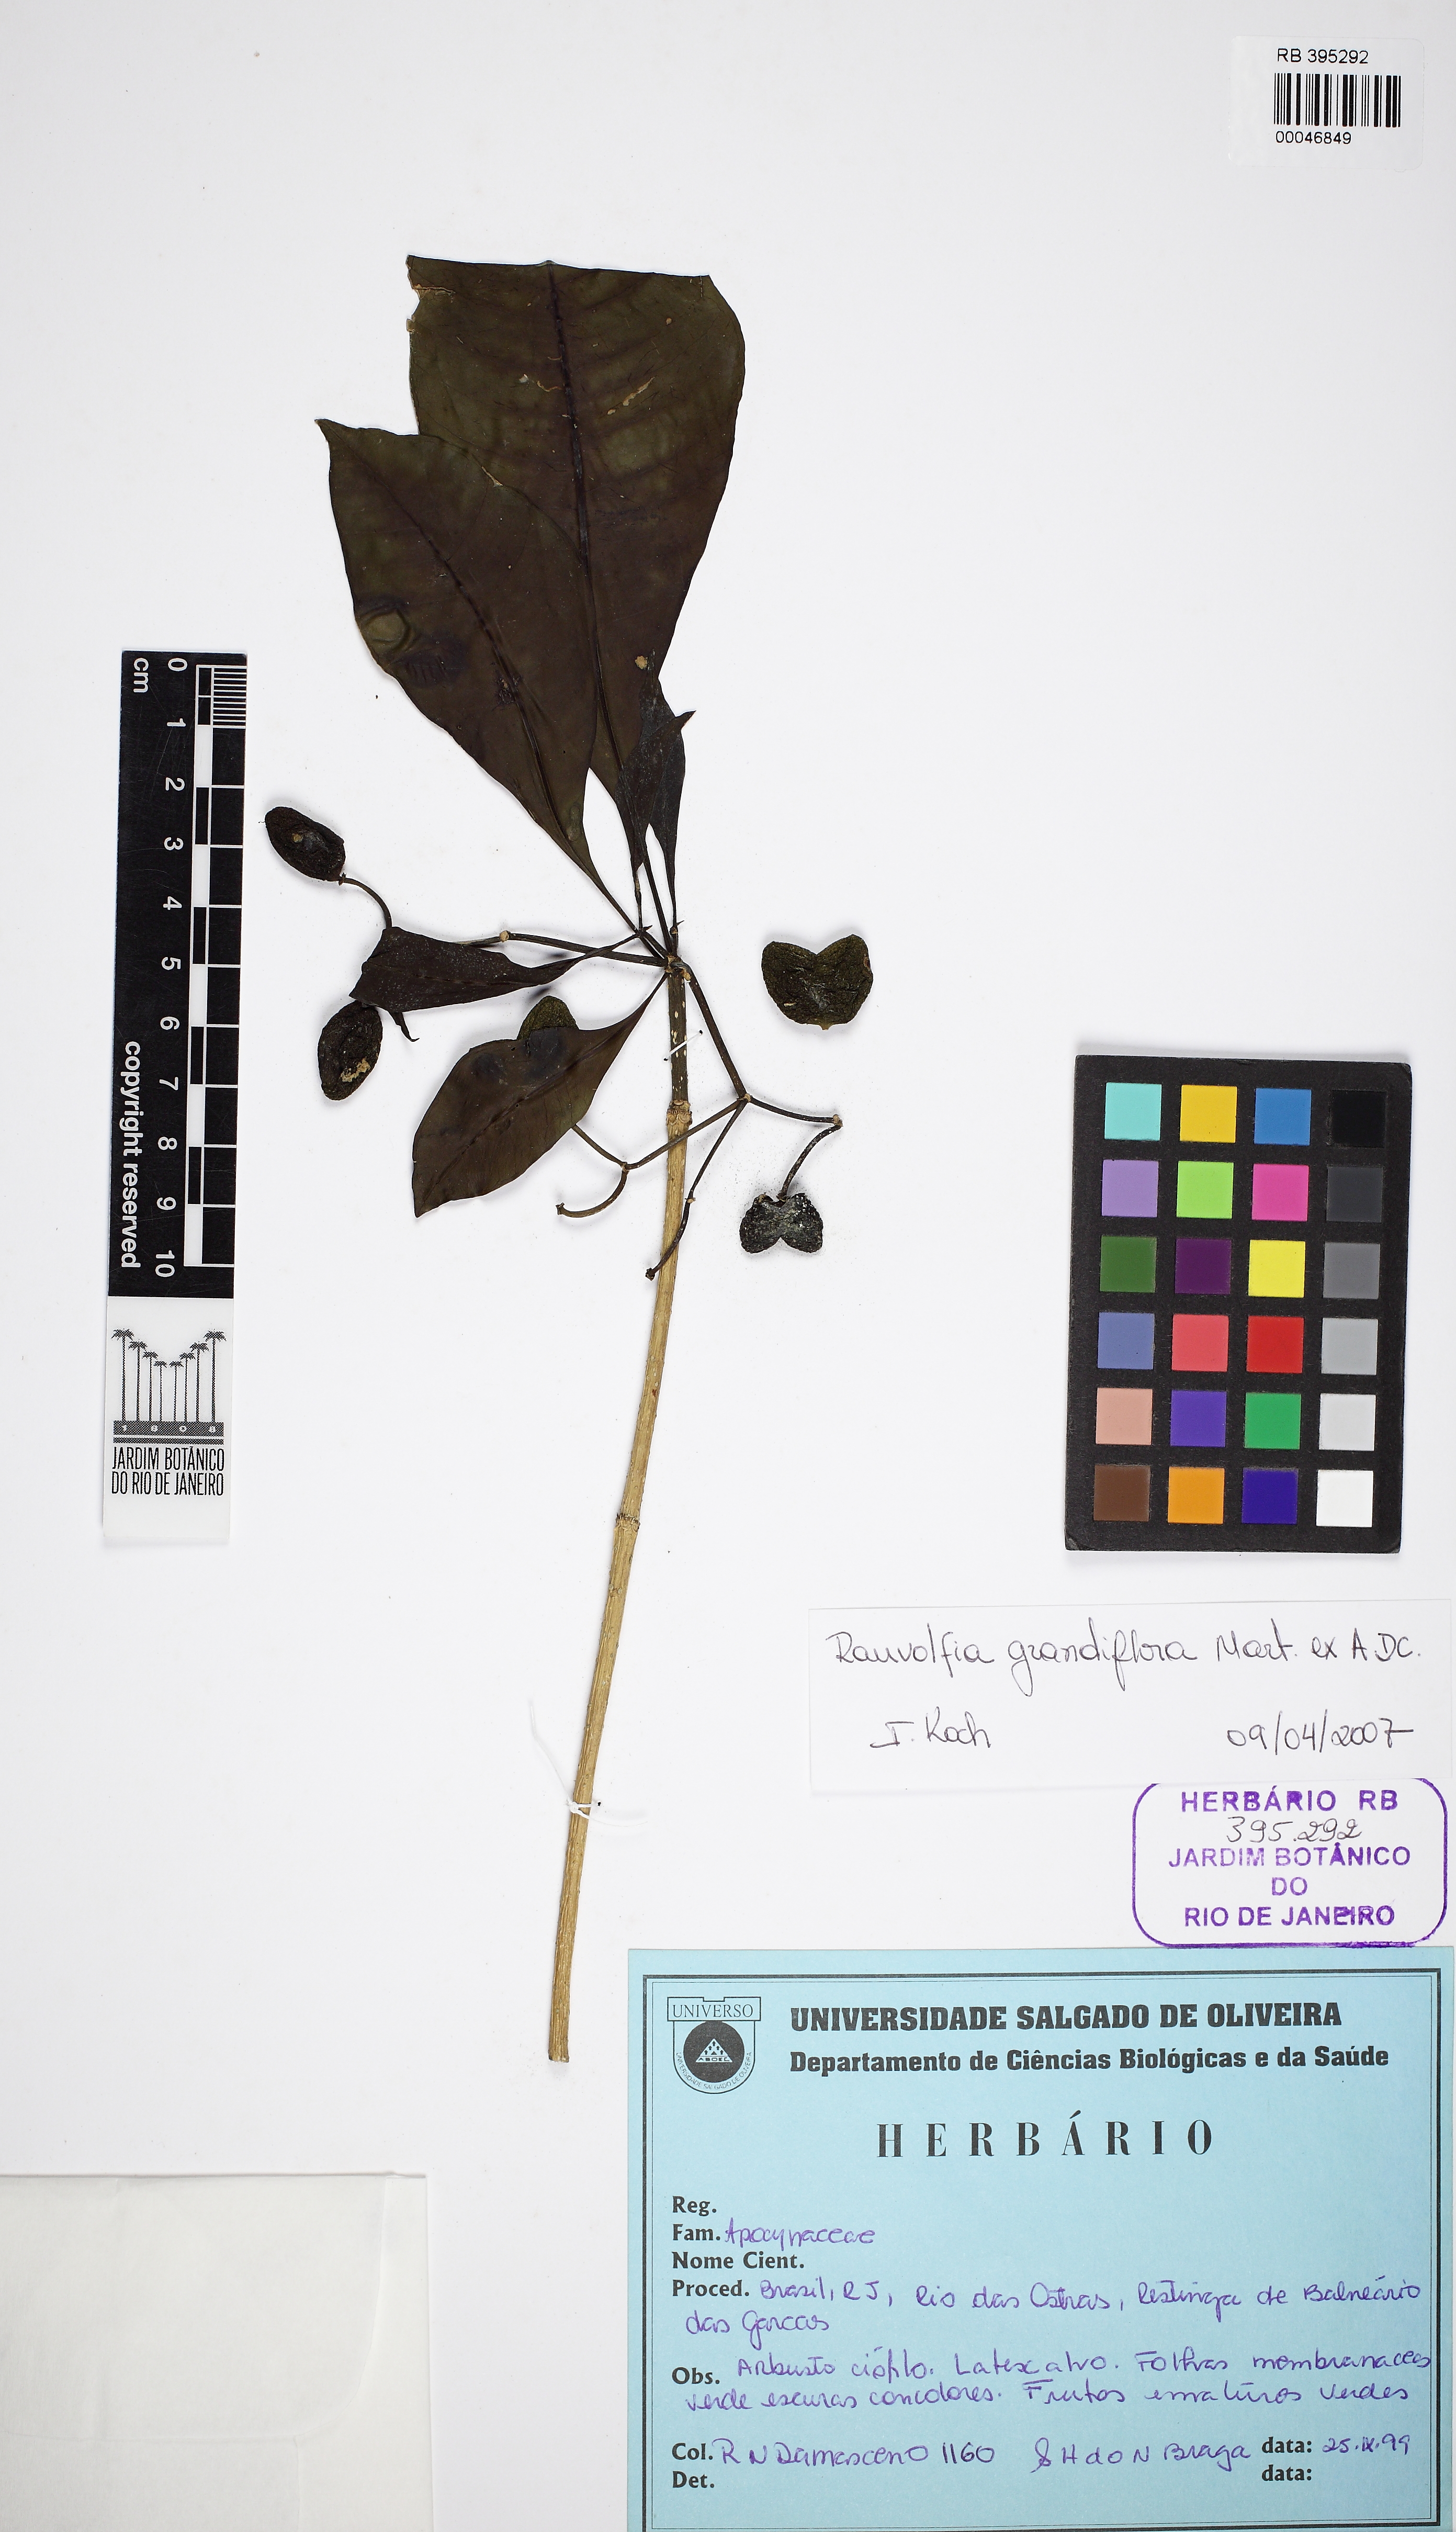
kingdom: Plantae
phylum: Tracheophyta
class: Magnoliopsida
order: Gentianales
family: Apocynaceae
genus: Rauvolfia
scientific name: Rauvolfia grandiflora
